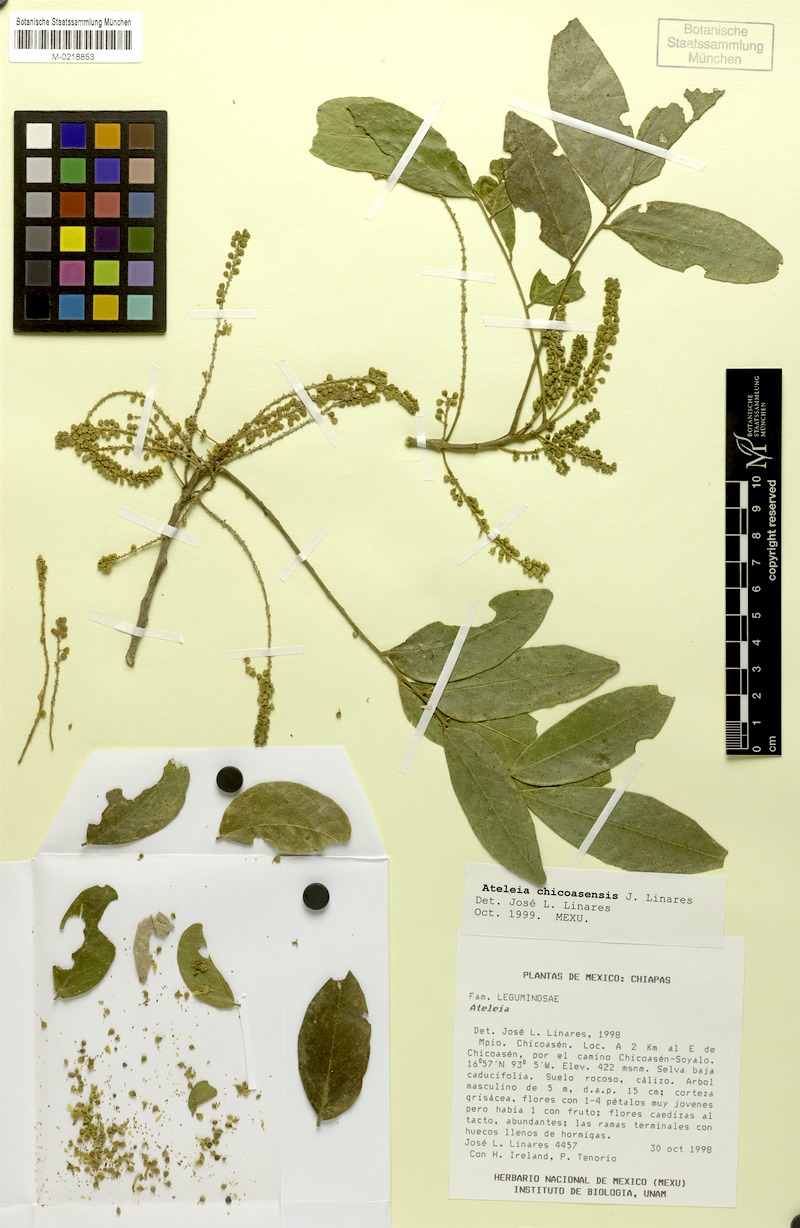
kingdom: Plantae
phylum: Tracheophyta
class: Magnoliopsida
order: Fabales
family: Fabaceae
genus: Ateleia
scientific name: Ateleia chicoasensis
